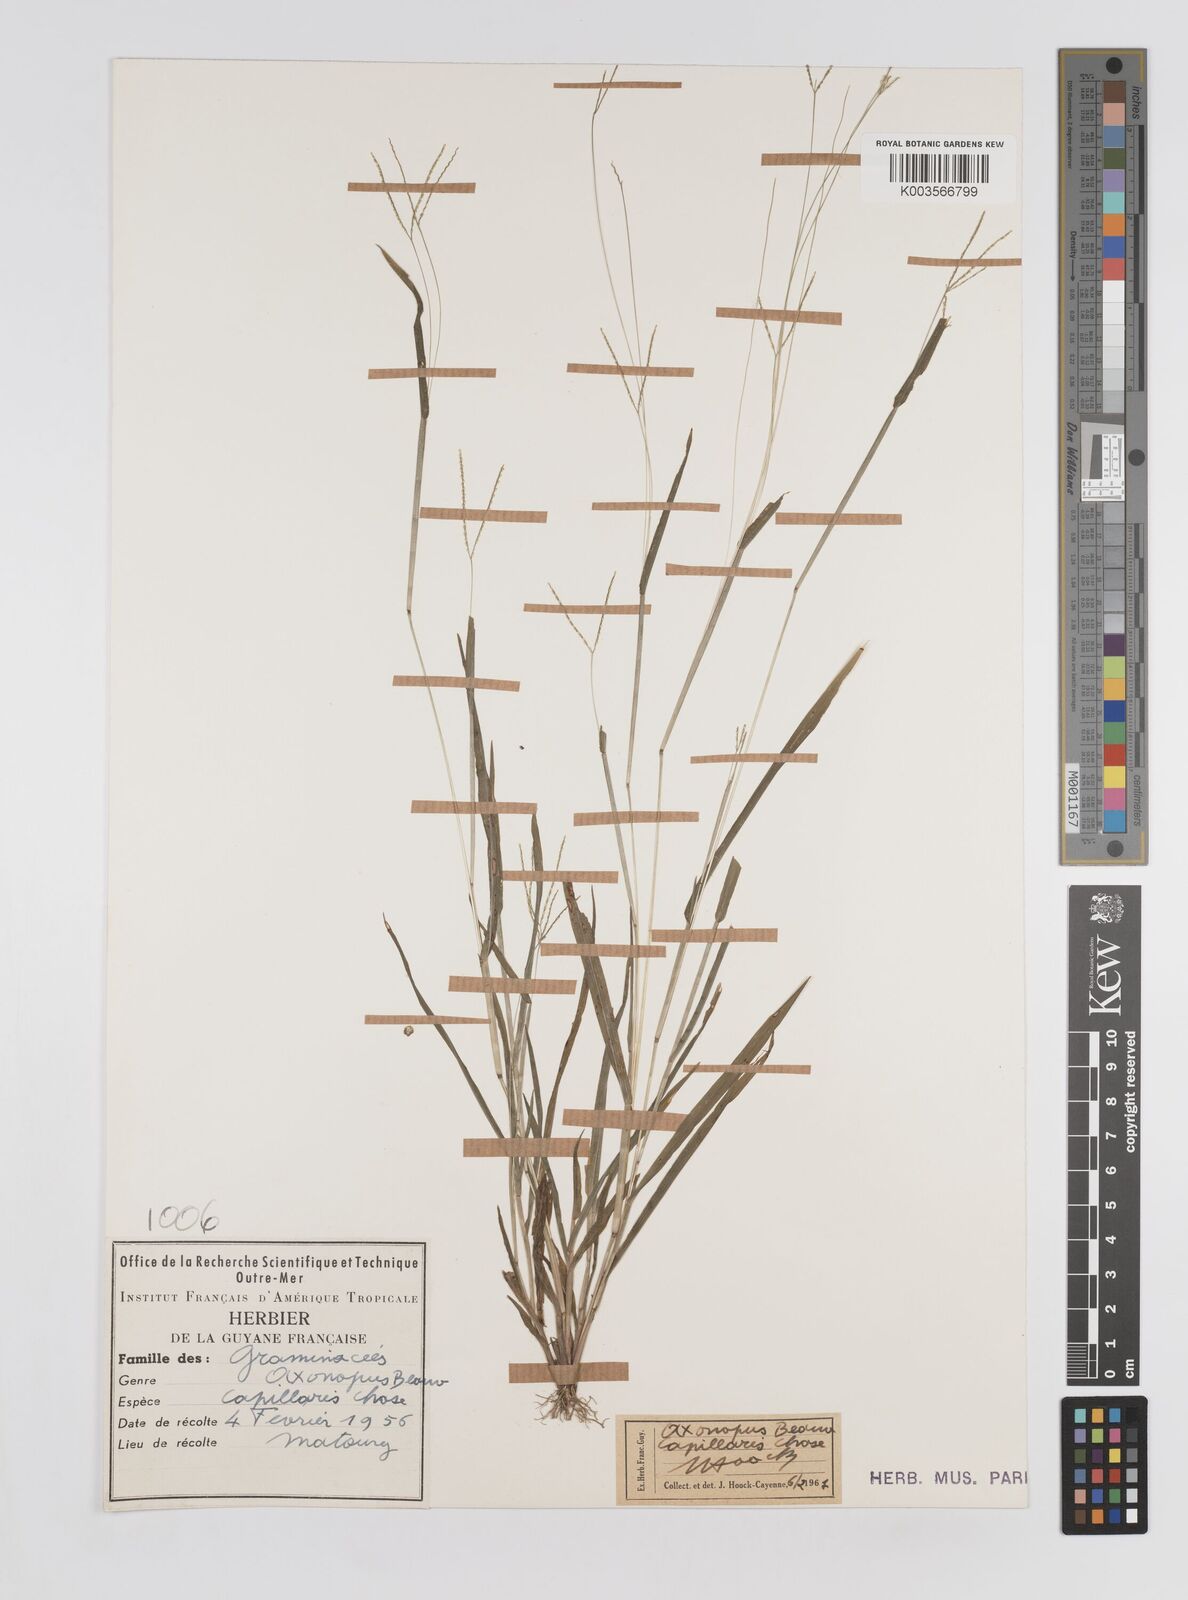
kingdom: Plantae
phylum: Tracheophyta
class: Liliopsida
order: Poales
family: Poaceae
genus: Axonopus
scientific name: Axonopus capillaris
